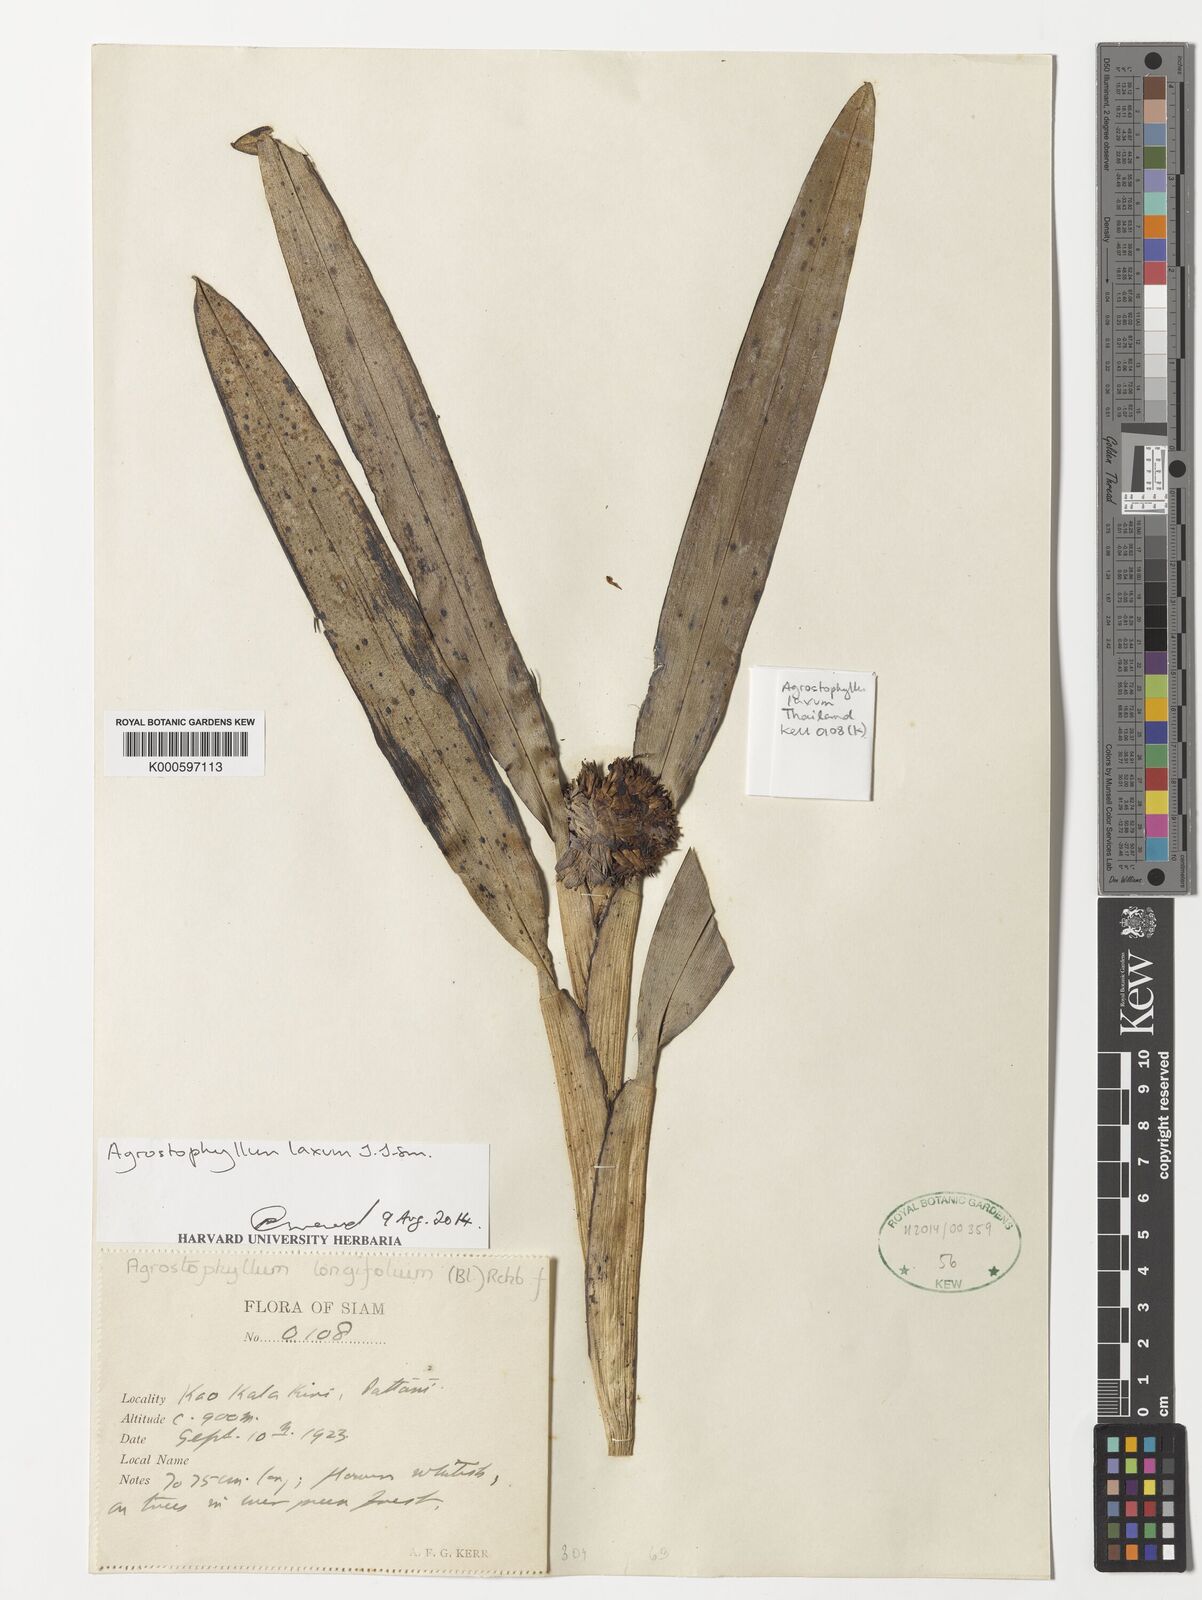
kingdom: Plantae
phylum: Tracheophyta
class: Liliopsida
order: Asparagales
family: Orchidaceae
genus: Agrostophyllum
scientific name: Agrostophyllum laxum
